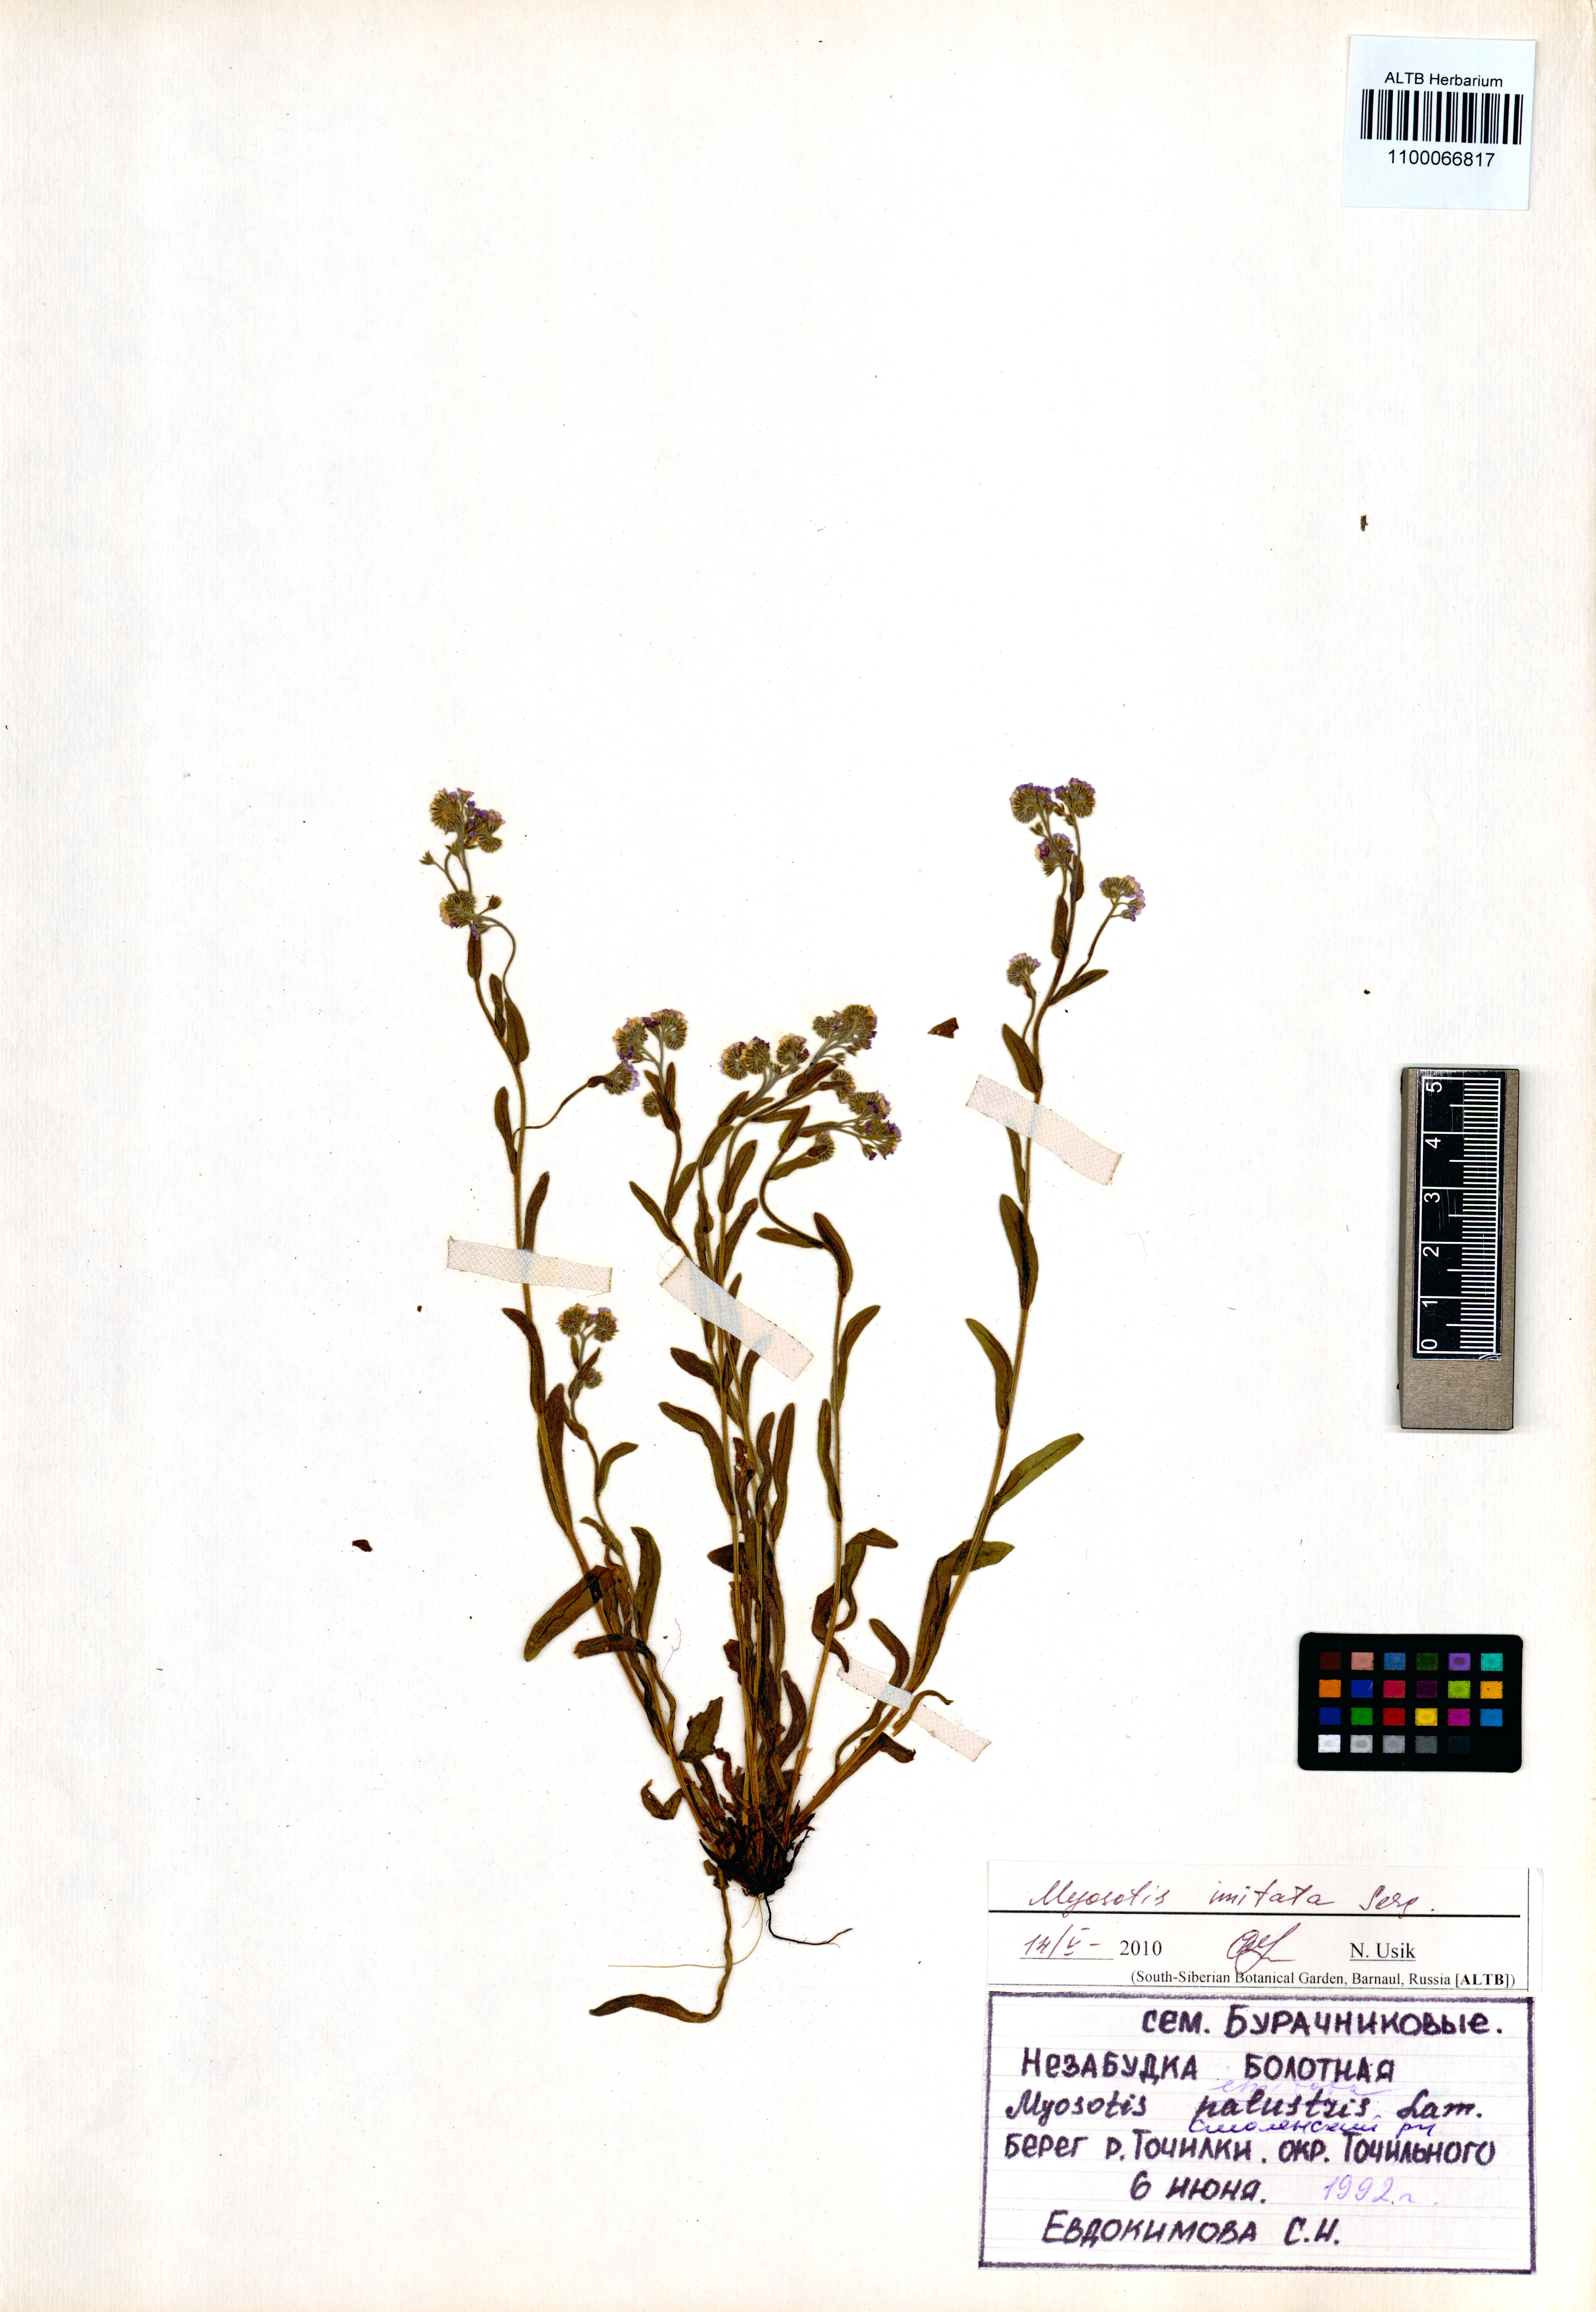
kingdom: Plantae
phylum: Tracheophyta
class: Magnoliopsida
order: Boraginales
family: Boraginaceae
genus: Myosotis
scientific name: Myosotis imitata
